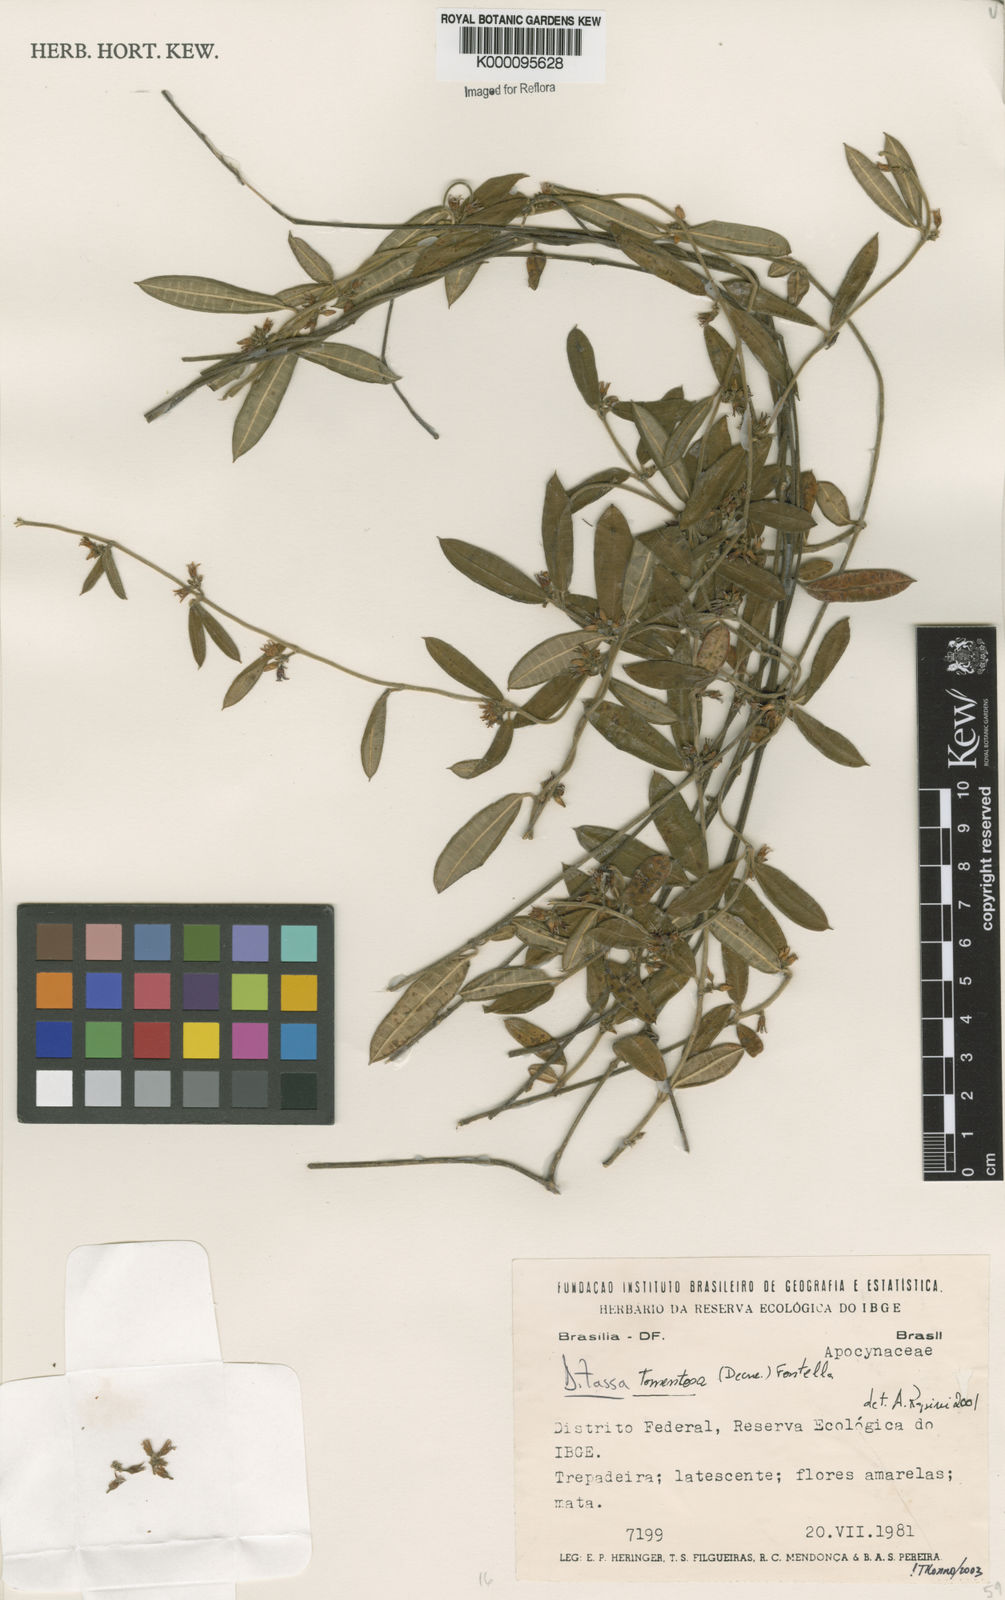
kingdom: Plantae
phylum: Tracheophyta
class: Magnoliopsida
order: Gentianales
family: Apocynaceae
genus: Ditassa
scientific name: Ditassa tomentosa
